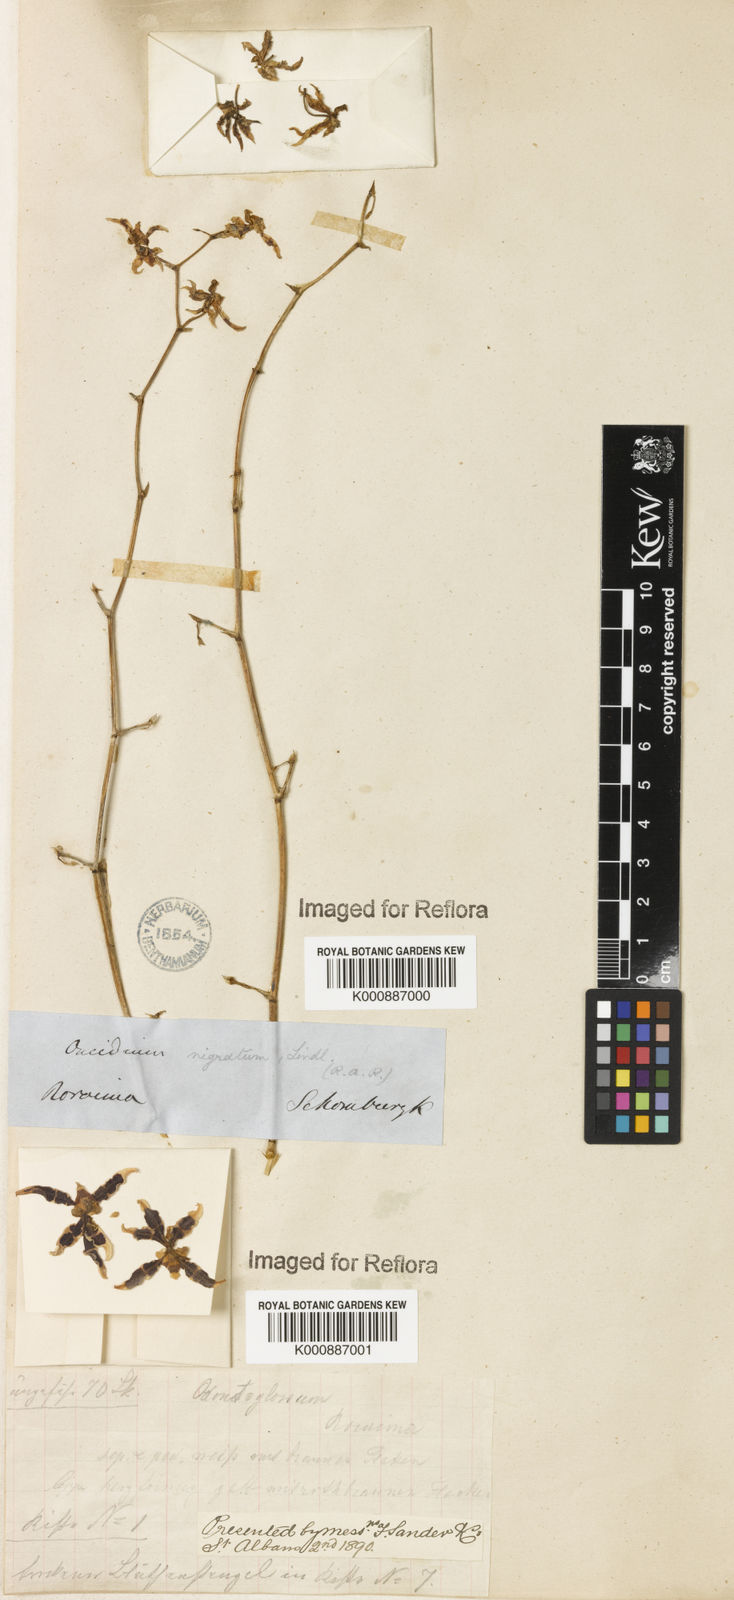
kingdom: Plantae
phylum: Tracheophyta
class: Liliopsida
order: Asparagales
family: Orchidaceae
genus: Oncidium
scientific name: Oncidium nigratum
